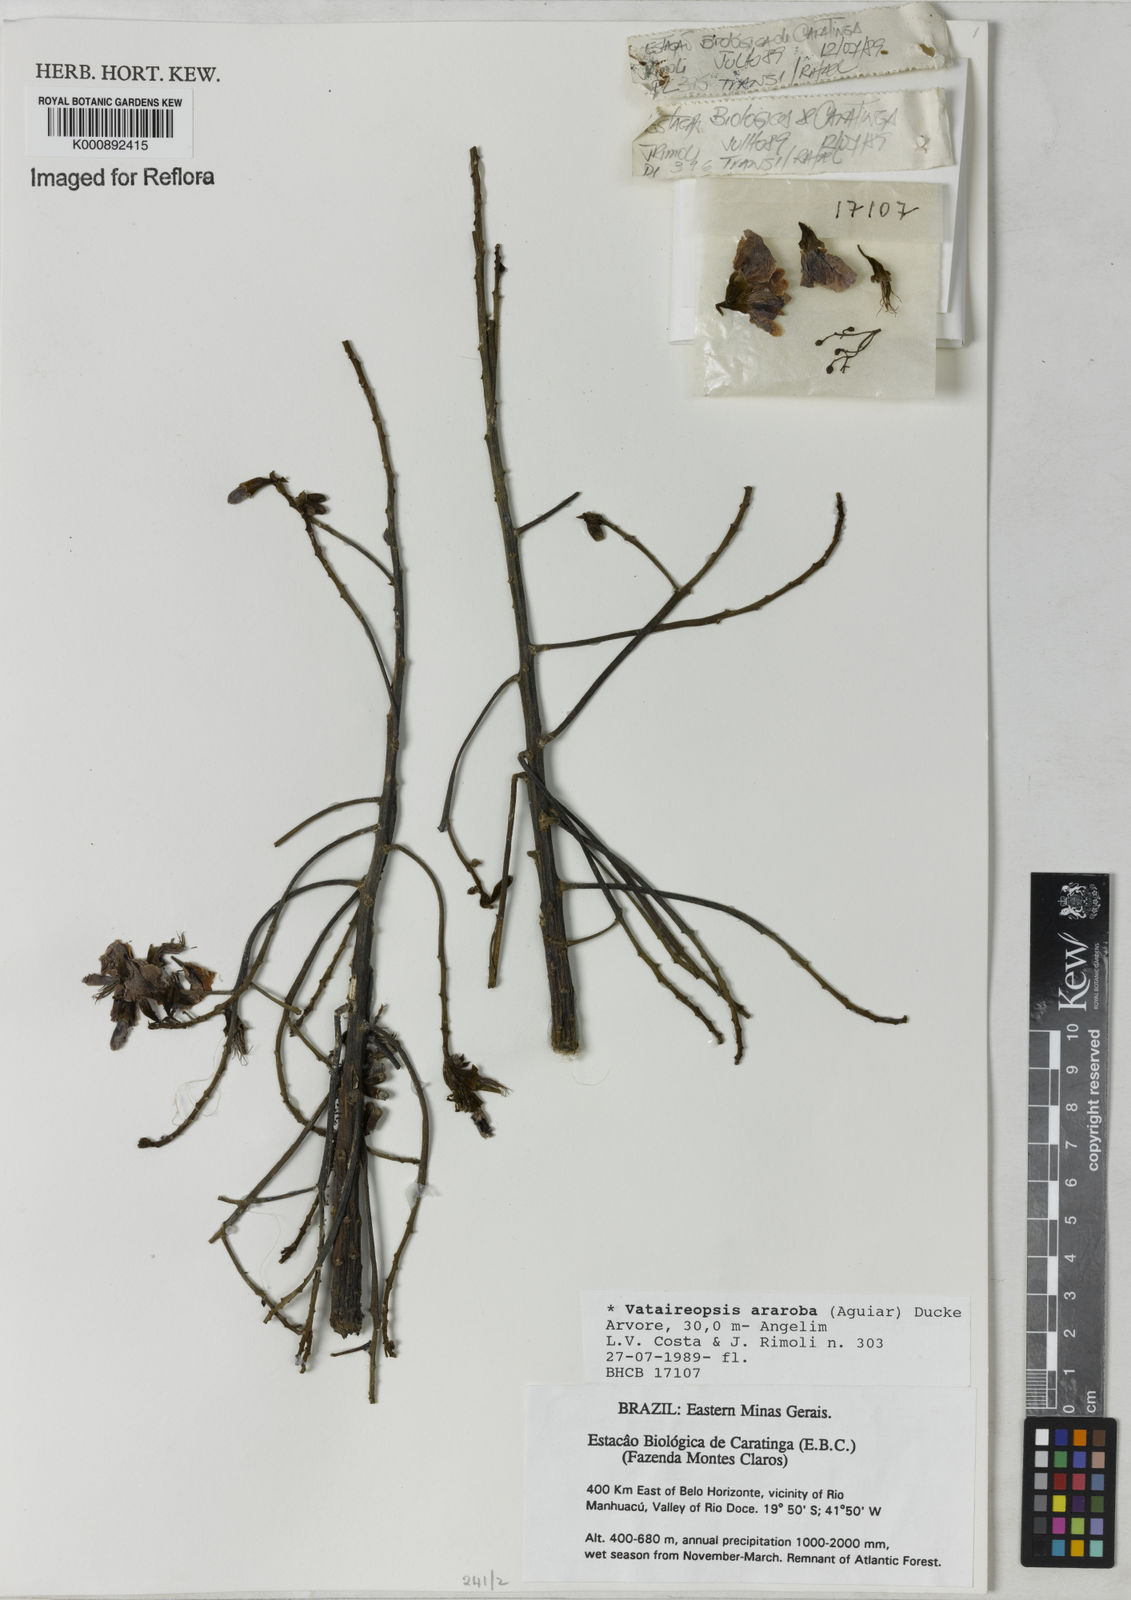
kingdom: Plantae
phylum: Tracheophyta
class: Magnoliopsida
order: Fabales
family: Fabaceae
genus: Vataireopsis
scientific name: Vataireopsis araroba
